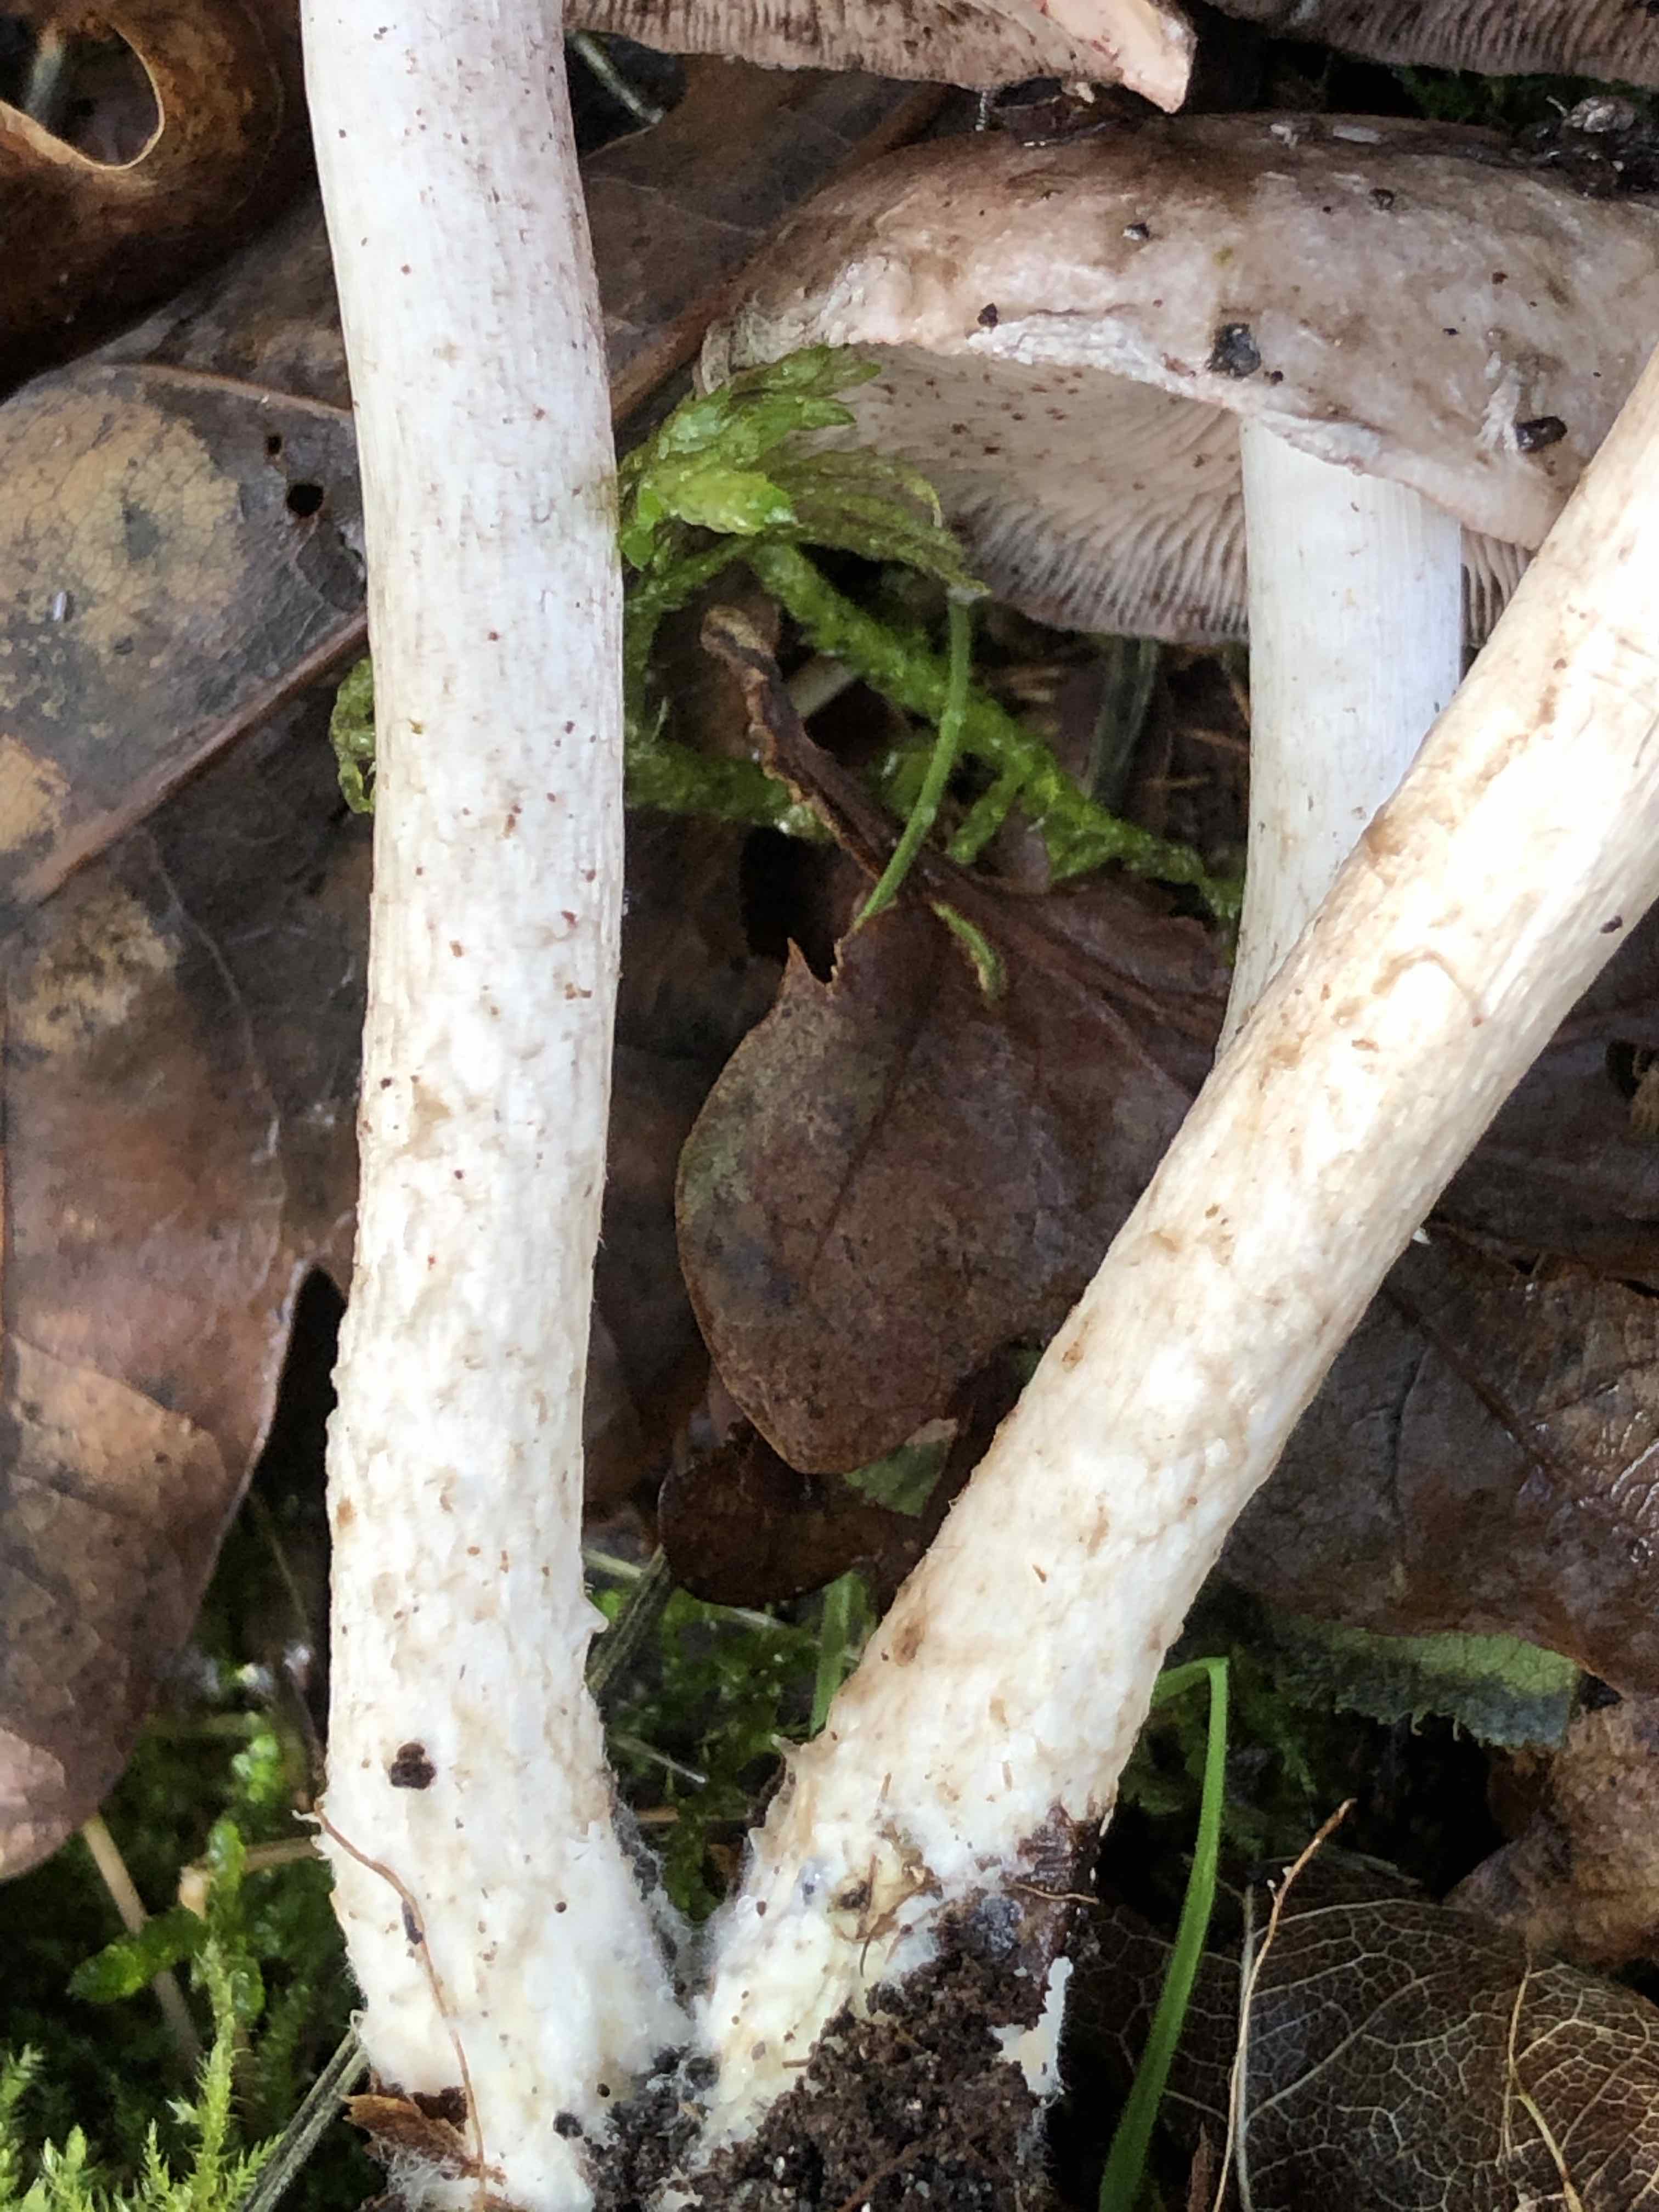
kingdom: Fungi
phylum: Basidiomycota
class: Agaricomycetes
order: Agaricales
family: Psathyrellaceae
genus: Candolleomyces
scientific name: Candolleomyces candolleanus
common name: Candolles mørkhat
